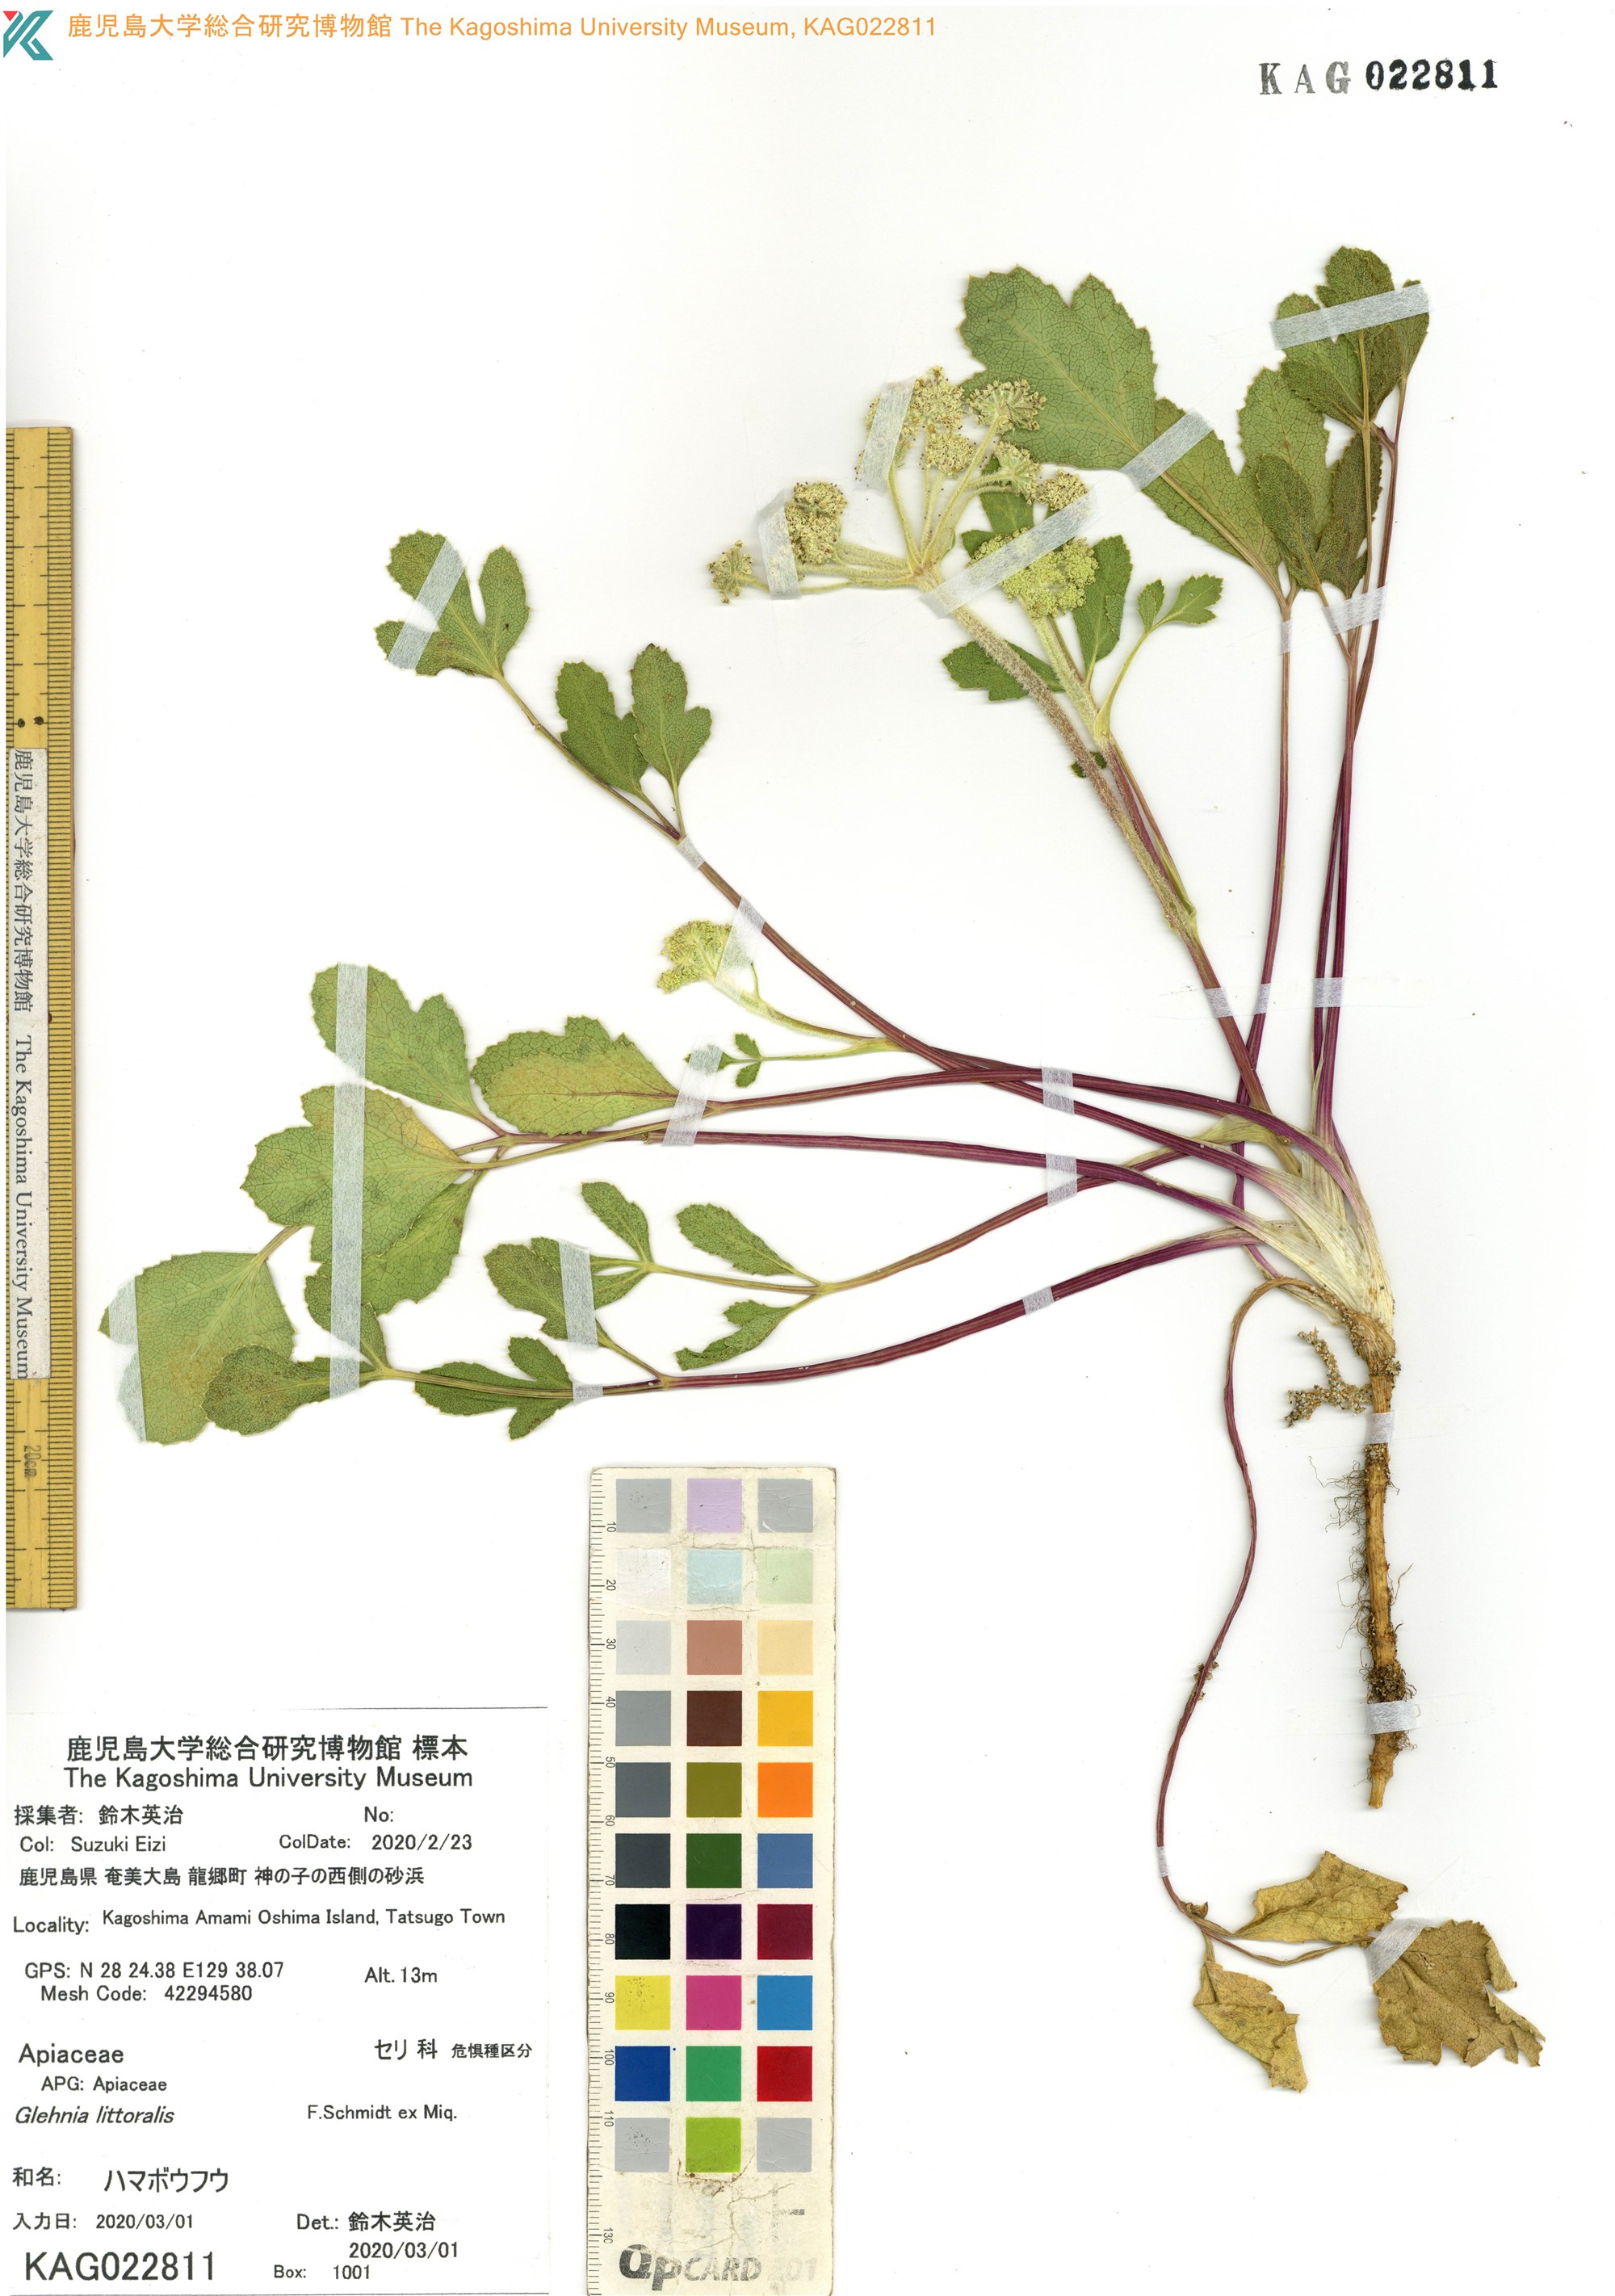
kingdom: Plantae
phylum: Tracheophyta
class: Magnoliopsida
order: Apiales
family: Apiaceae
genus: Glehnia
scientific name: Glehnia littoralis
